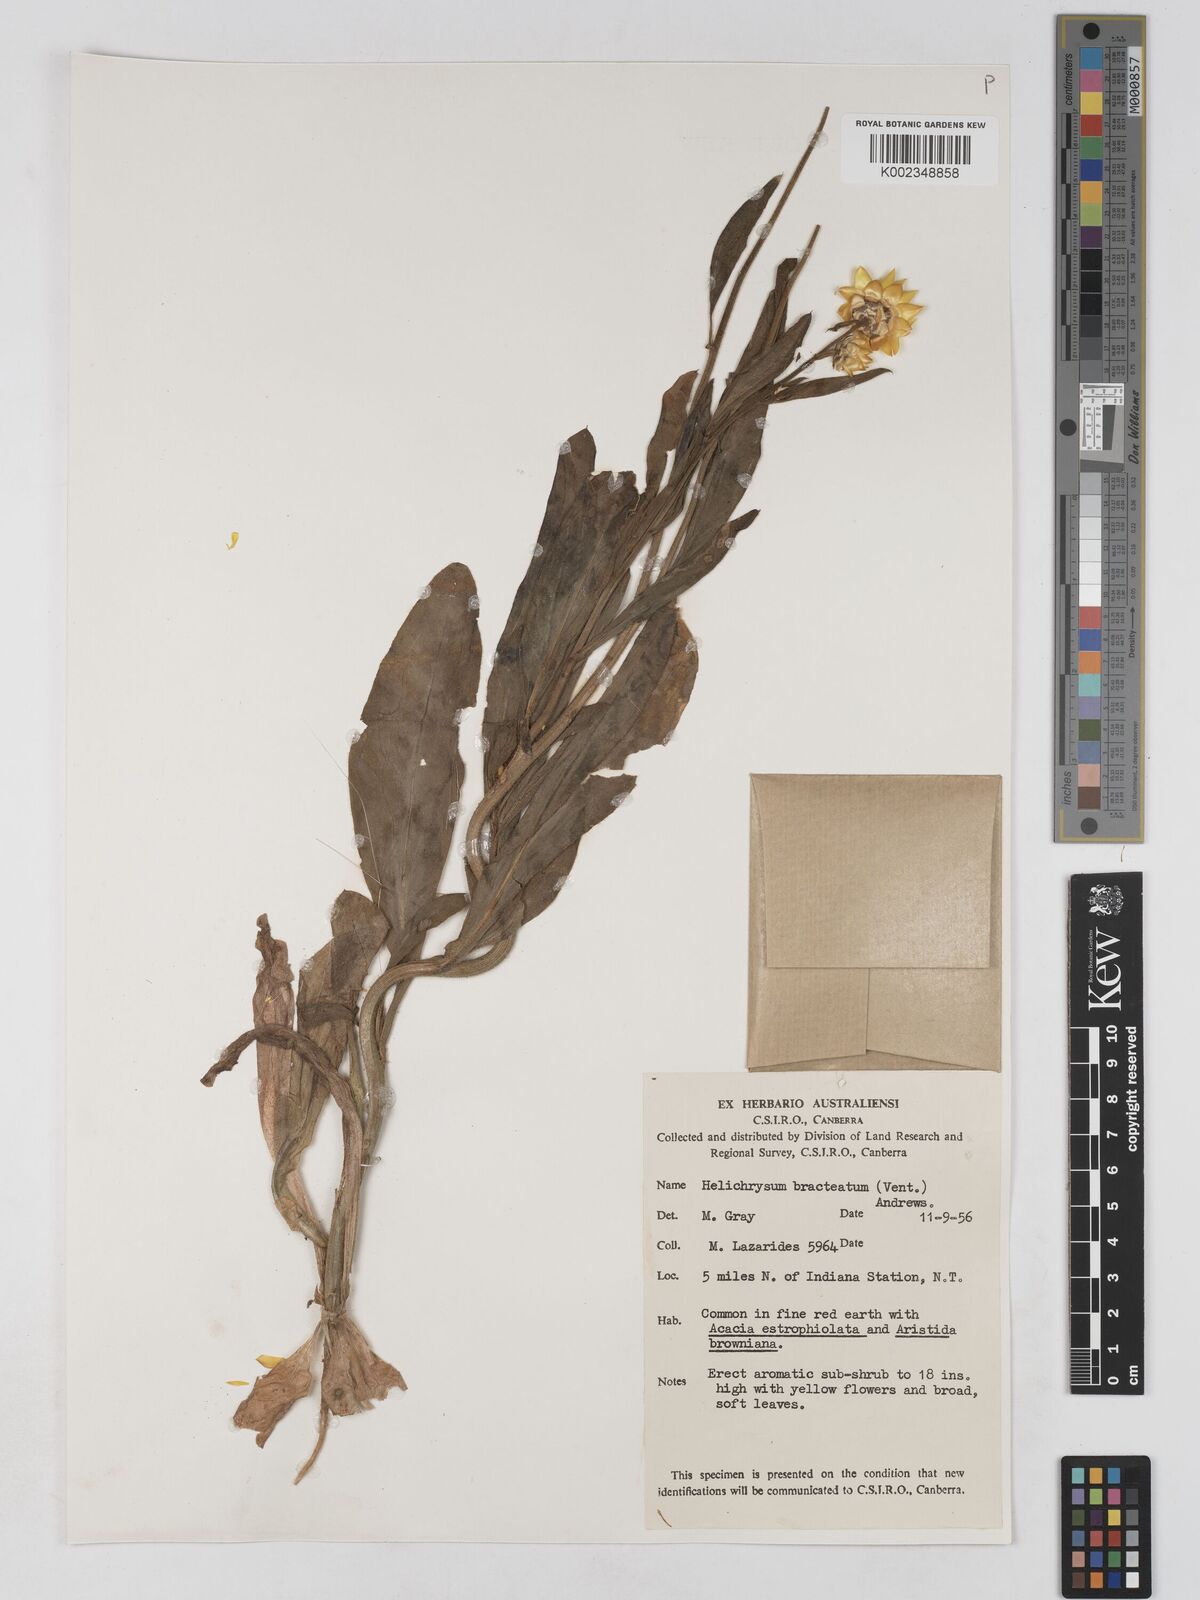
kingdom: Plantae
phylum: Tracheophyta
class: Magnoliopsida
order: Asterales
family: Asteraceae
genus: Xerochrysum
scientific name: Xerochrysum bracteatum
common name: Bracted strawflower
